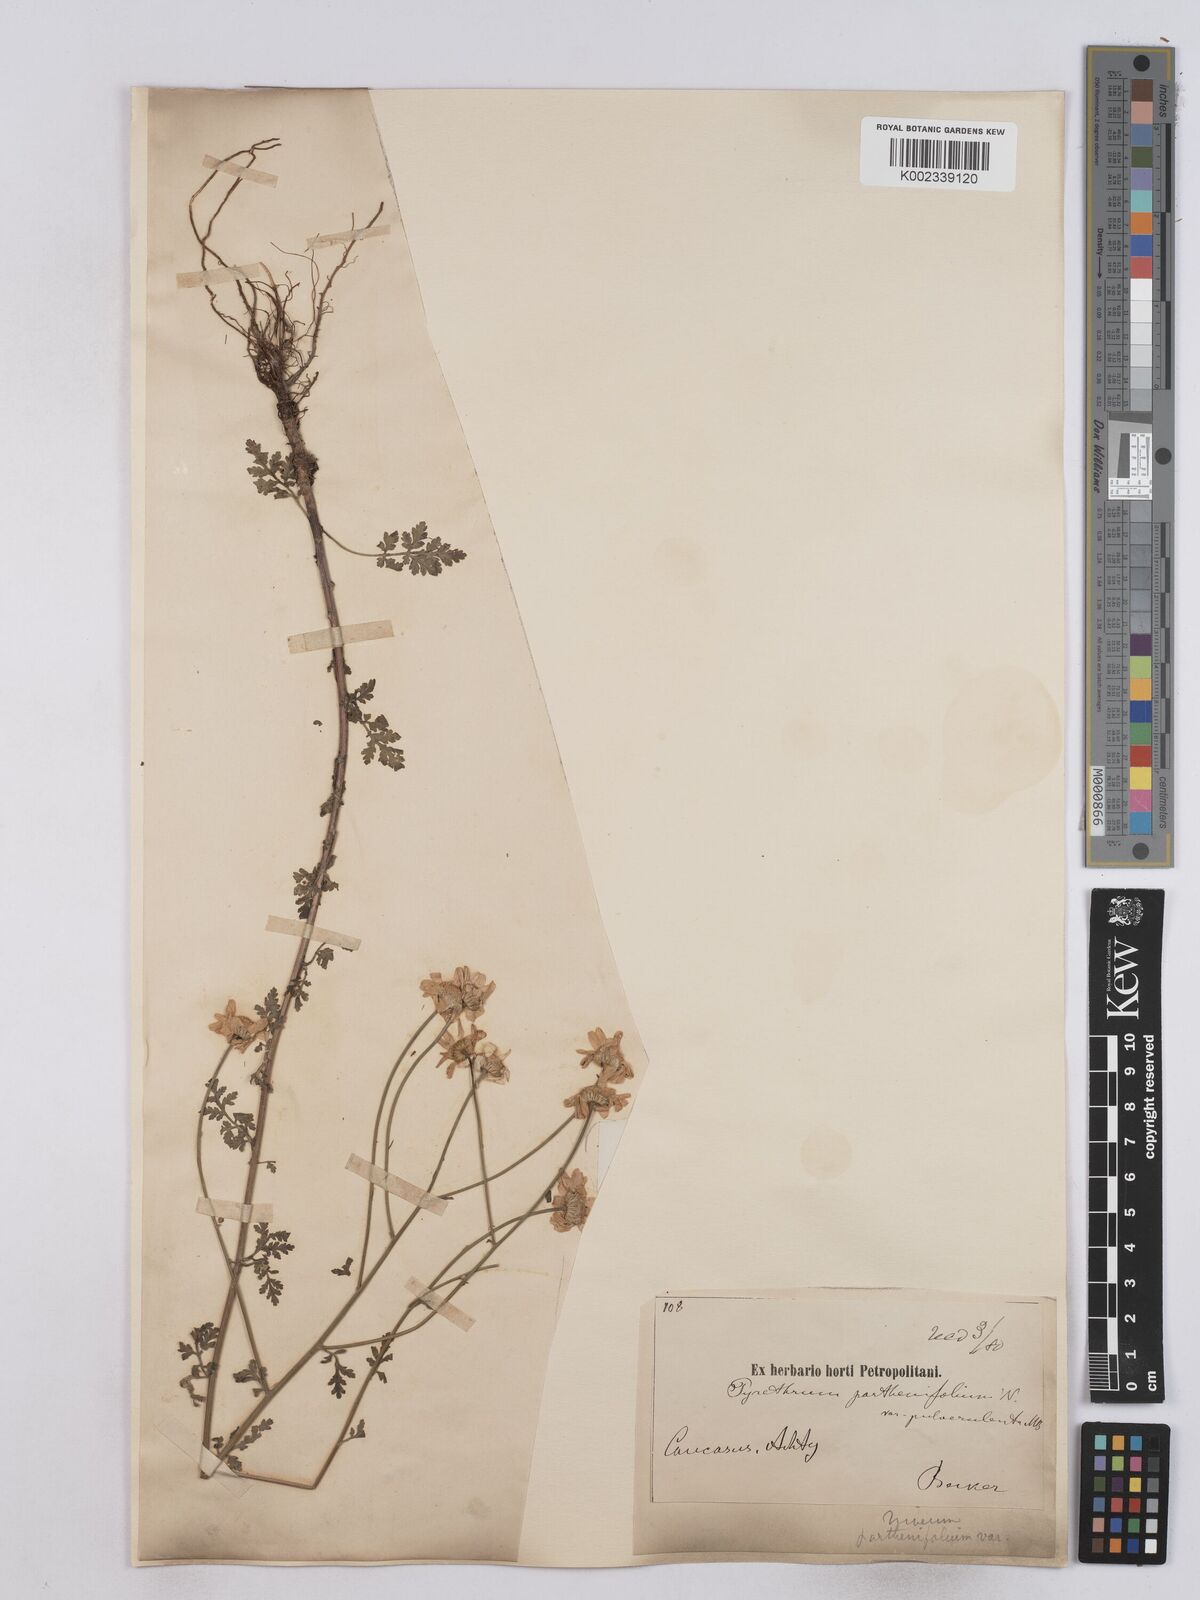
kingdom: Plantae
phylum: Tracheophyta
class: Magnoliopsida
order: Asterales
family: Asteraceae
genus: Tanacetum
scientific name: Tanacetum partheniifolium
